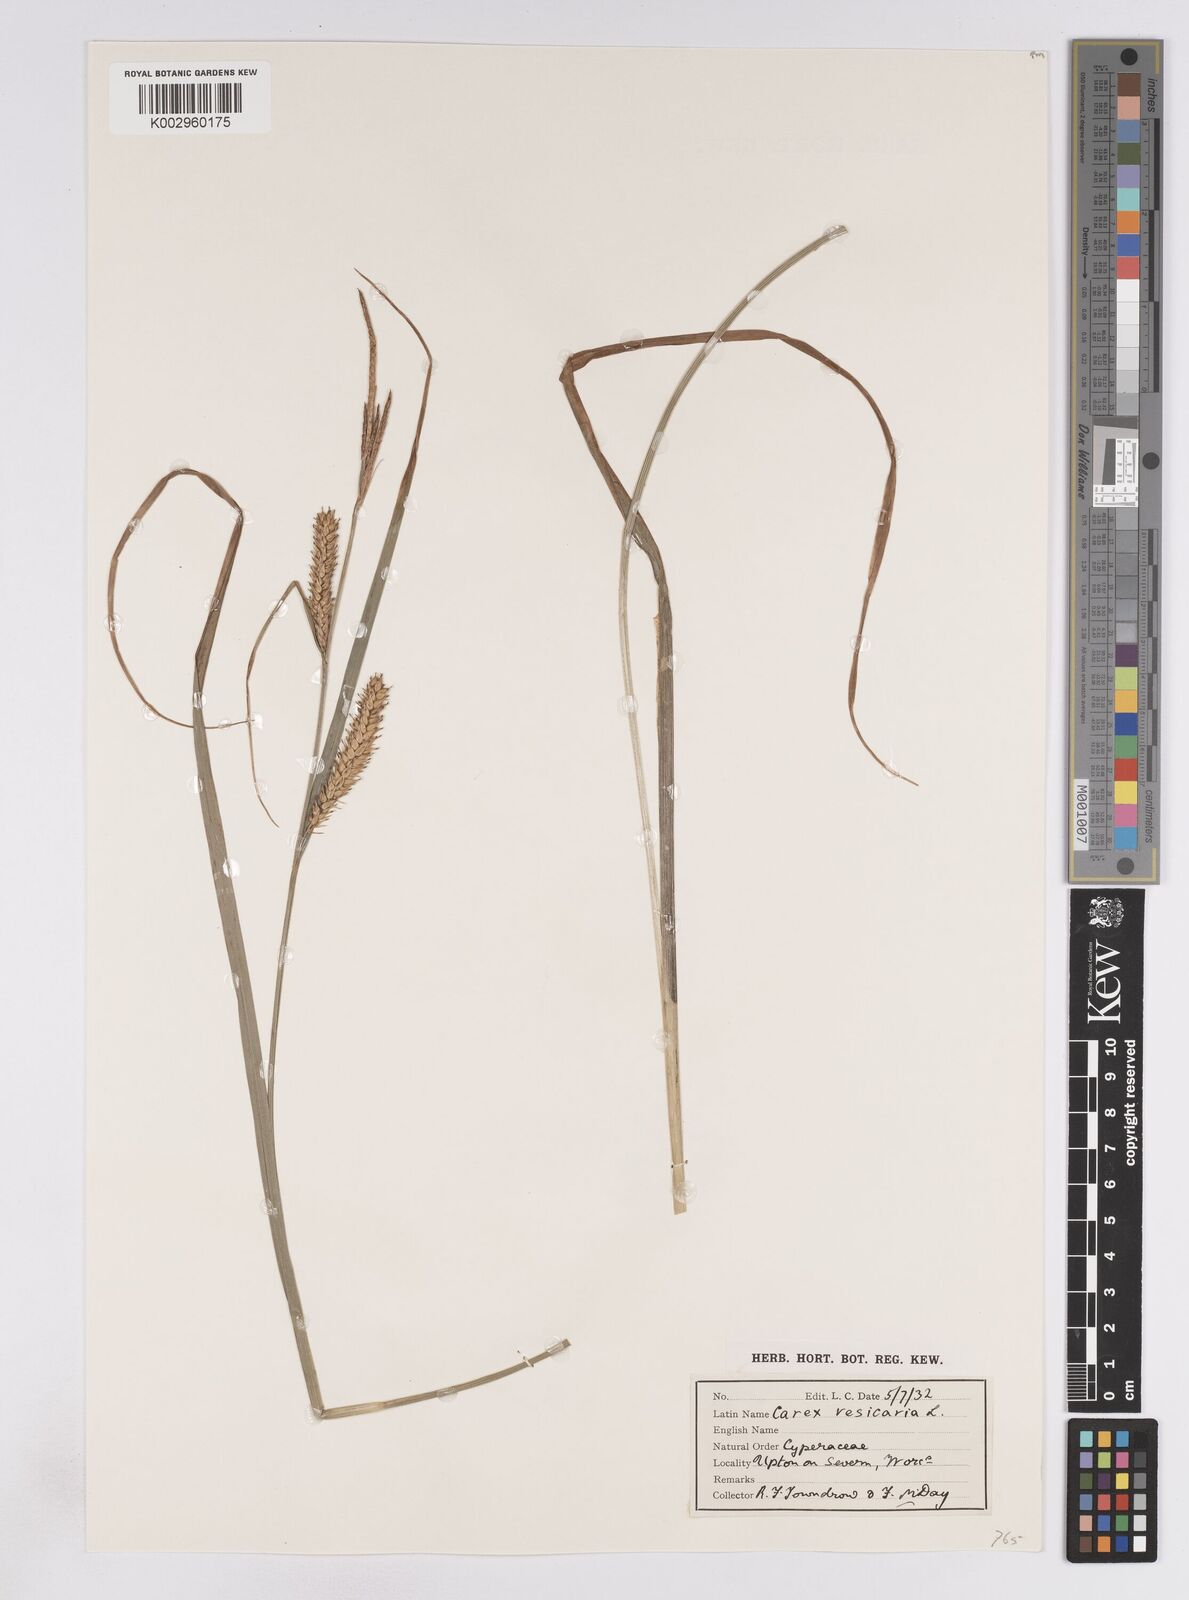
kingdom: Plantae
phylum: Tracheophyta
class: Liliopsida
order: Poales
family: Cyperaceae
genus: Carex
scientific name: Carex vesicaria
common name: Bladder-sedge
